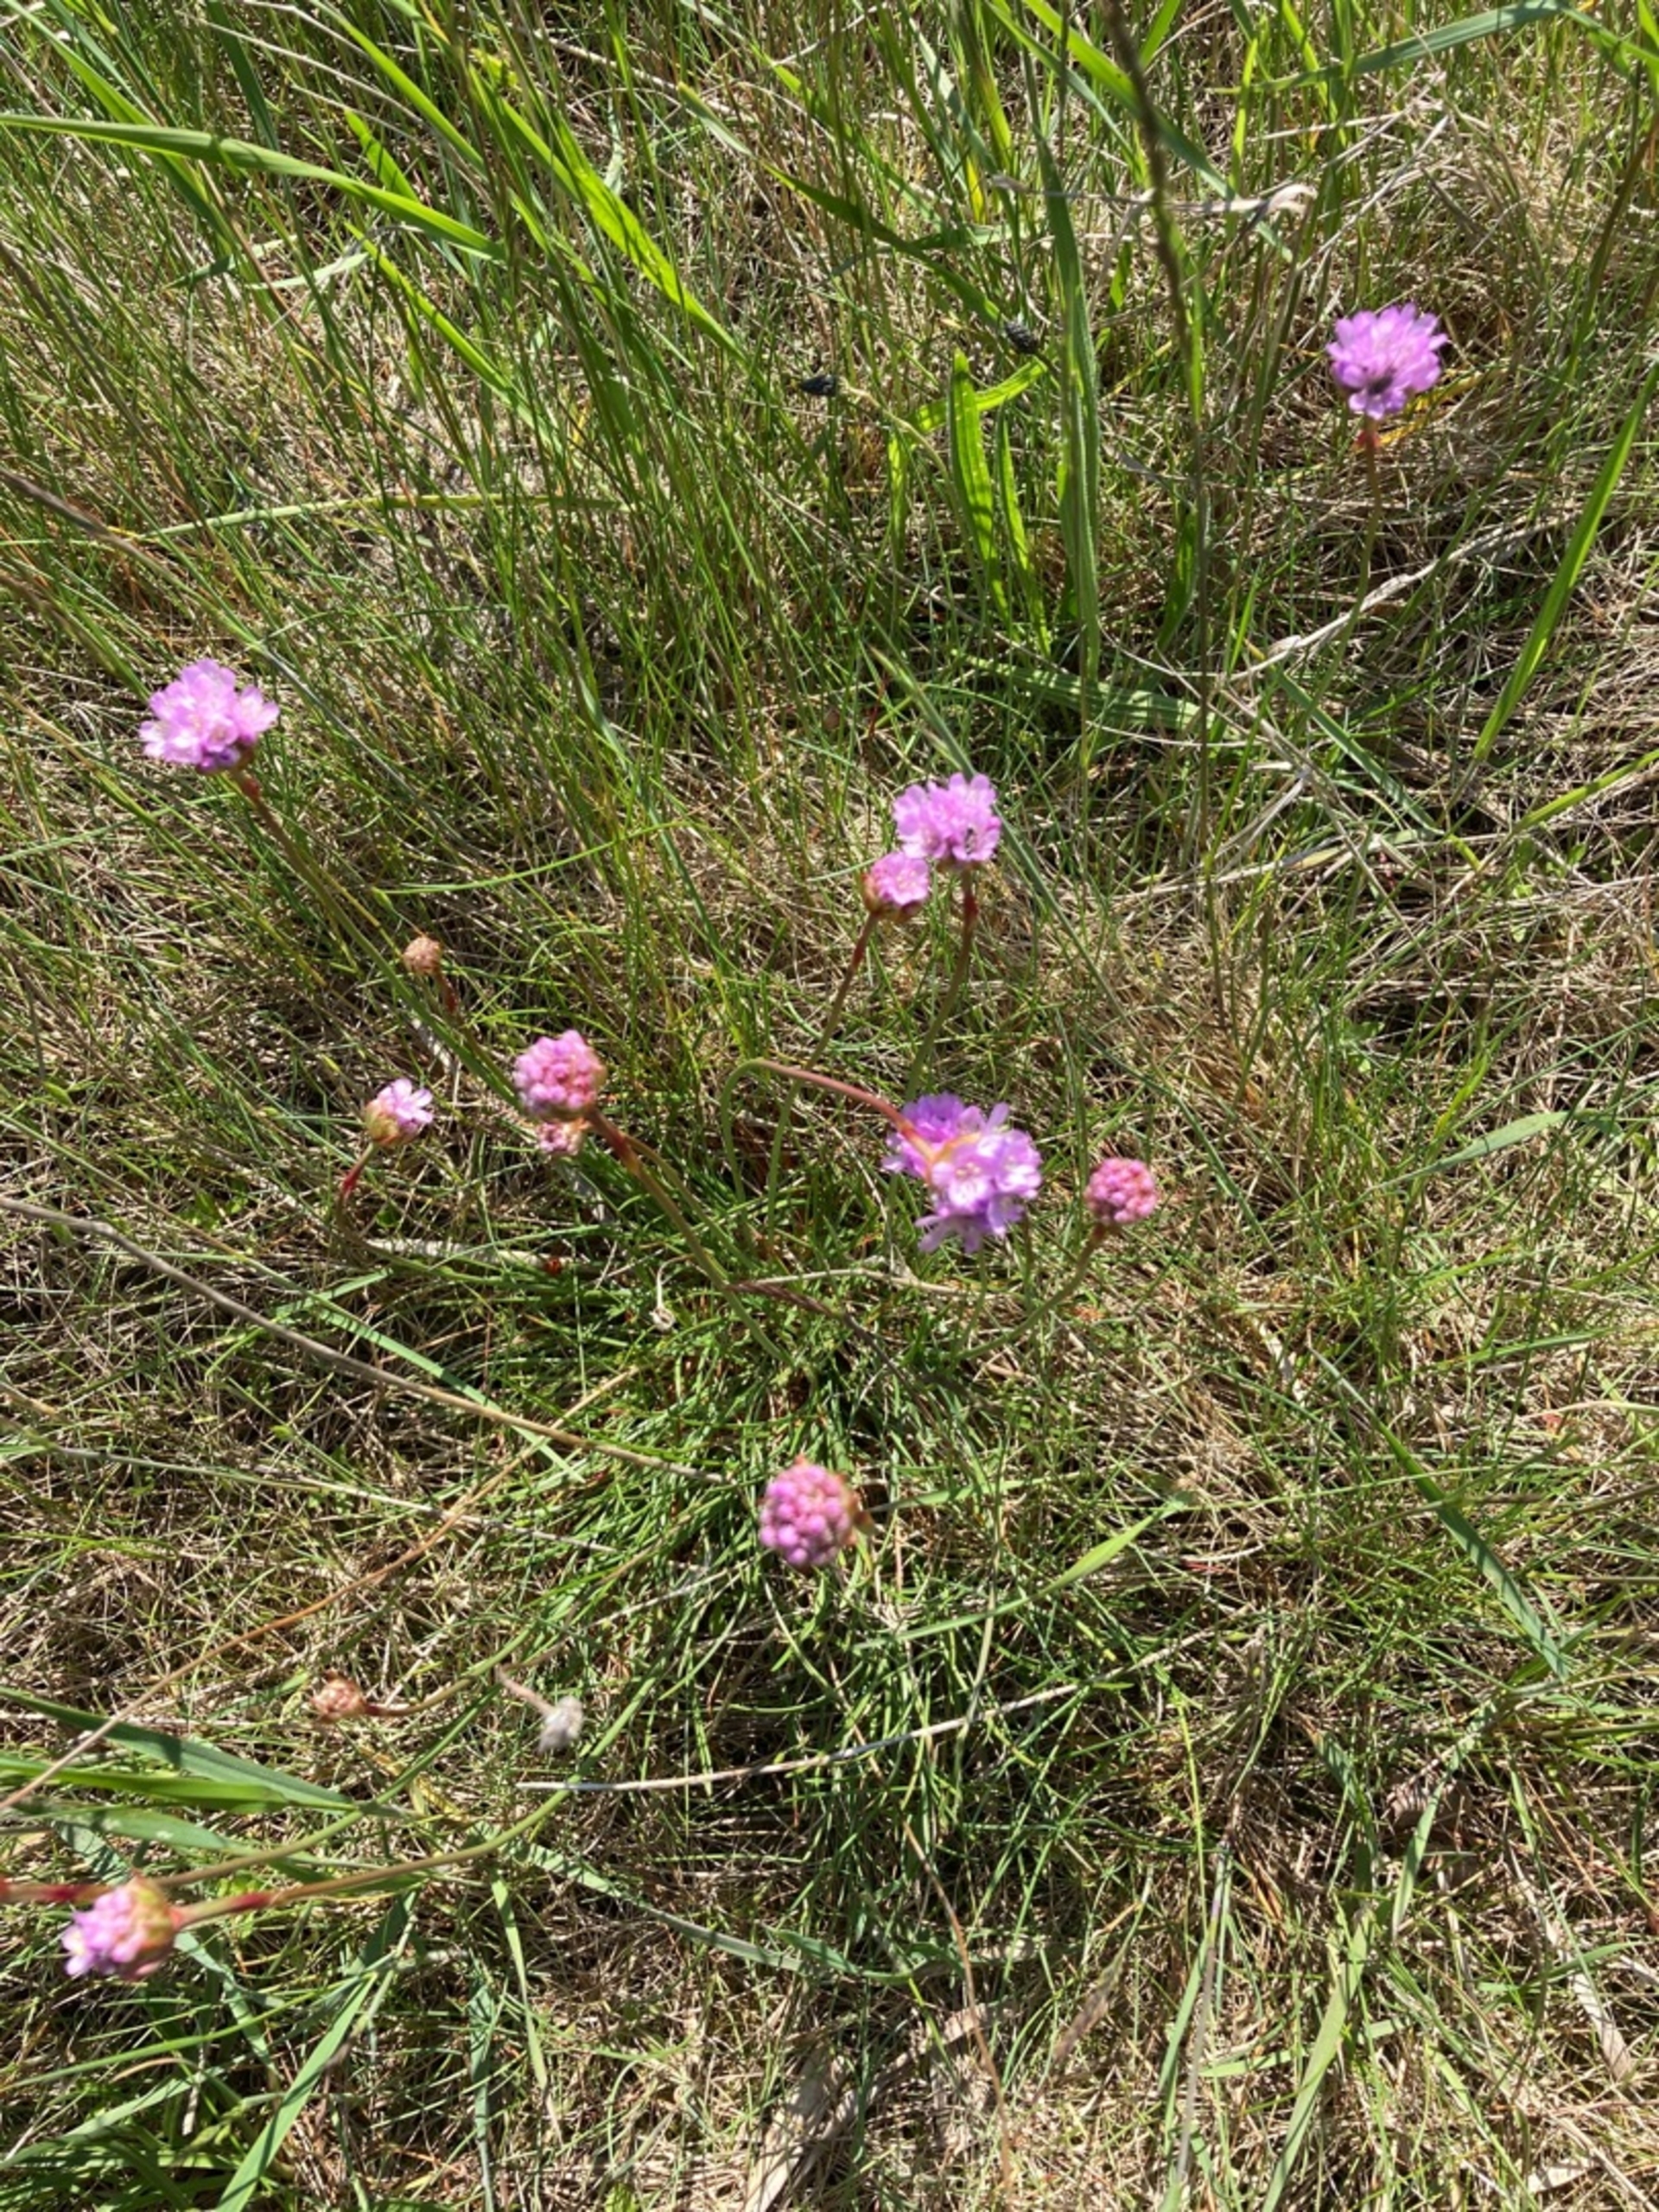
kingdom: Plantae
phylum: Tracheophyta
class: Magnoliopsida
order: Caryophyllales
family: Plumbaginaceae
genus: Armeria
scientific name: Armeria maritima
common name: Engelskgræs
